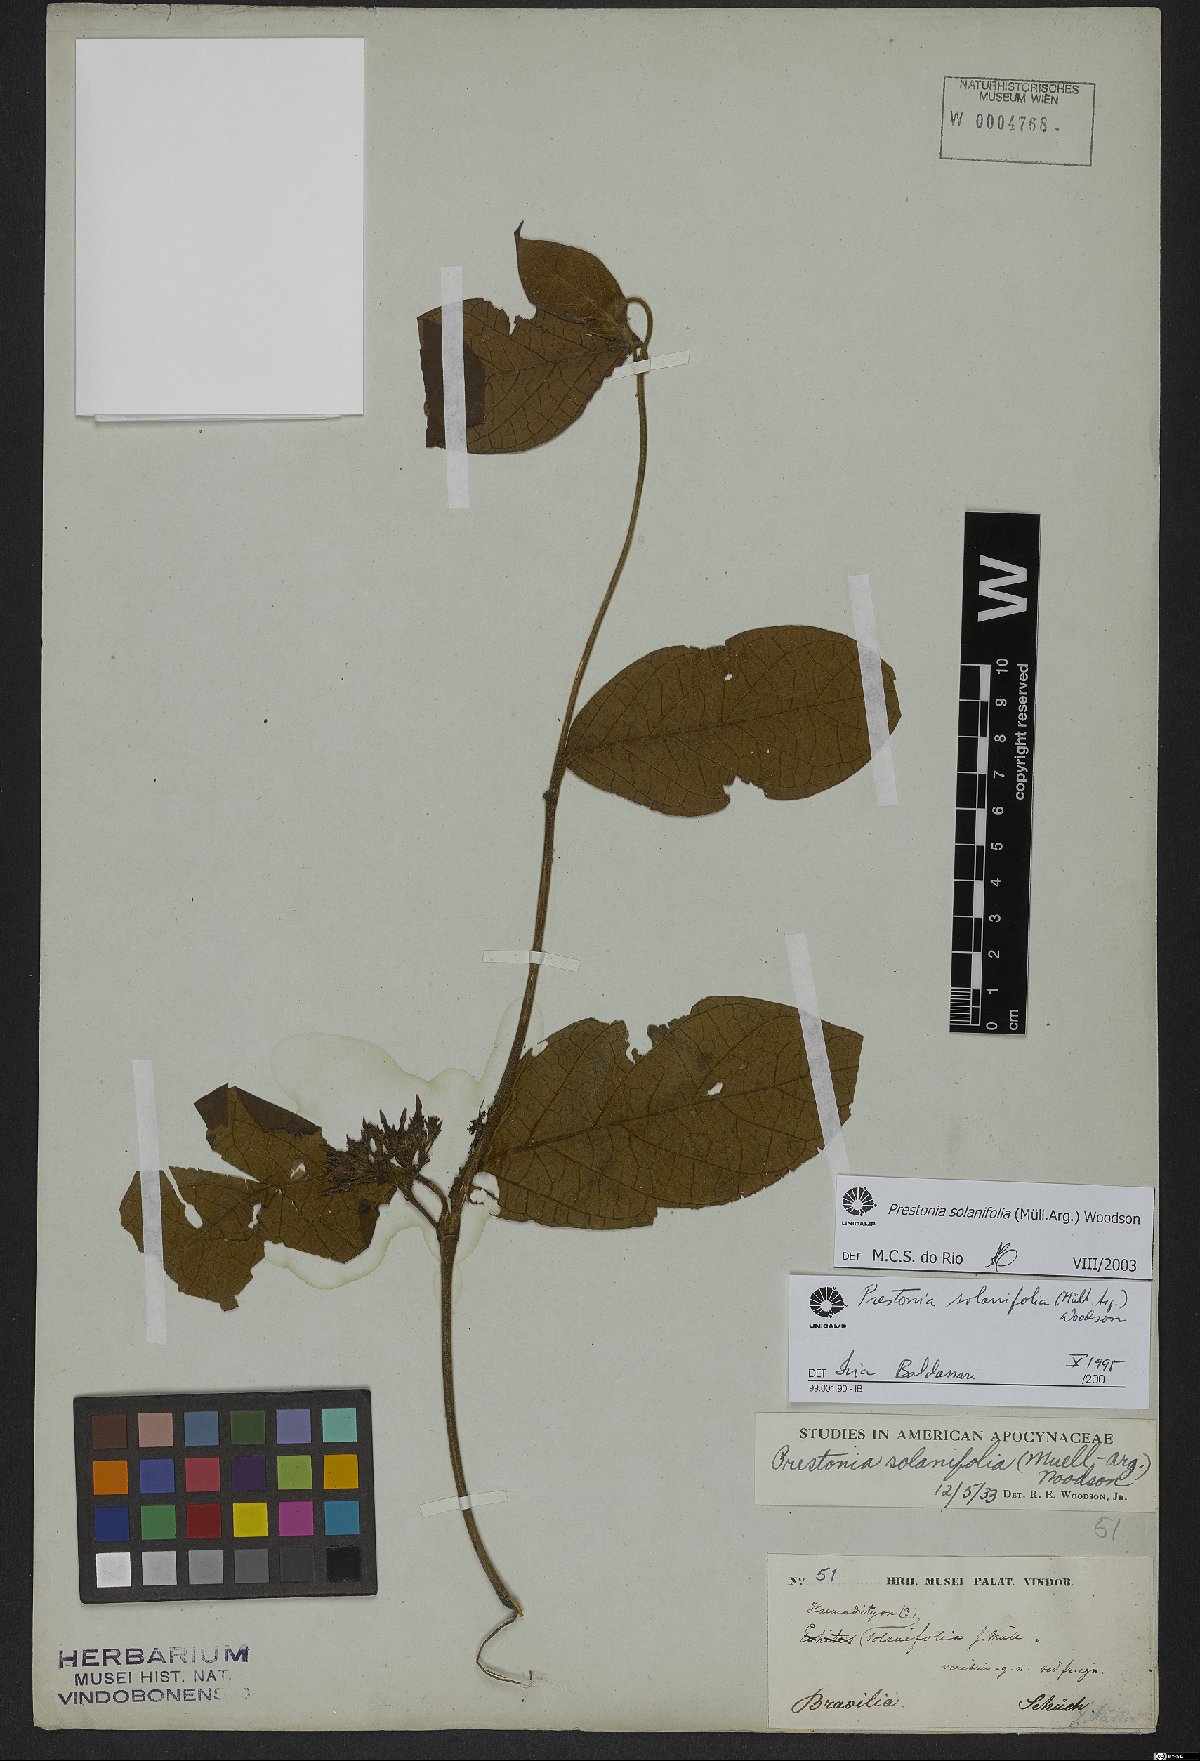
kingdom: Plantae
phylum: Tracheophyta
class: Magnoliopsida
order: Gentianales
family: Apocynaceae
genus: Prestonia
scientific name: Prestonia solanifolia
